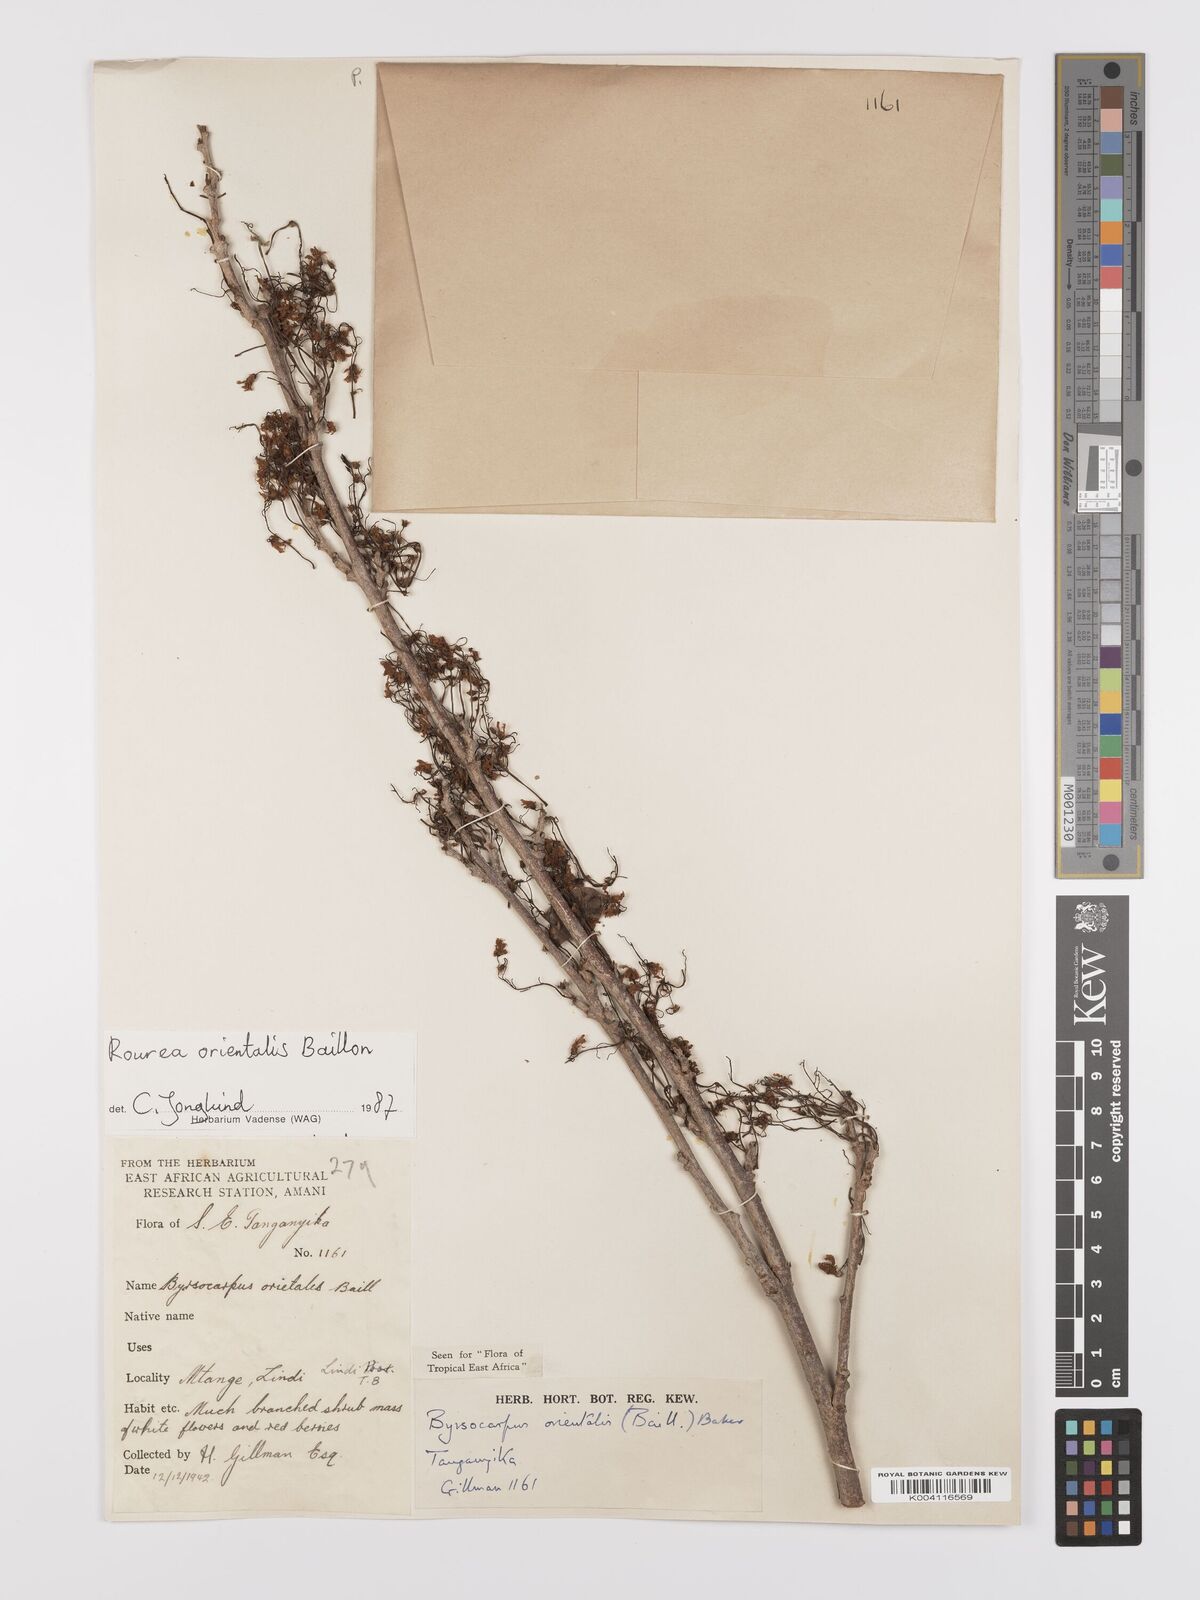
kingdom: Plantae
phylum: Tracheophyta
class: Magnoliopsida
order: Oxalidales
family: Connaraceae
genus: Rourea
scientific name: Rourea orientalis
